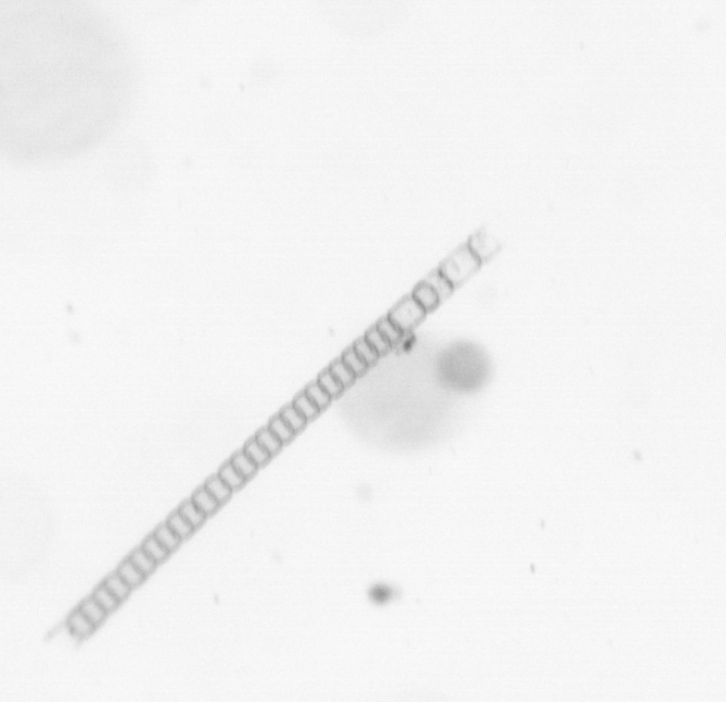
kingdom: Chromista
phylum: Ochrophyta
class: Bacillariophyceae
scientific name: Bacillariophyceae
